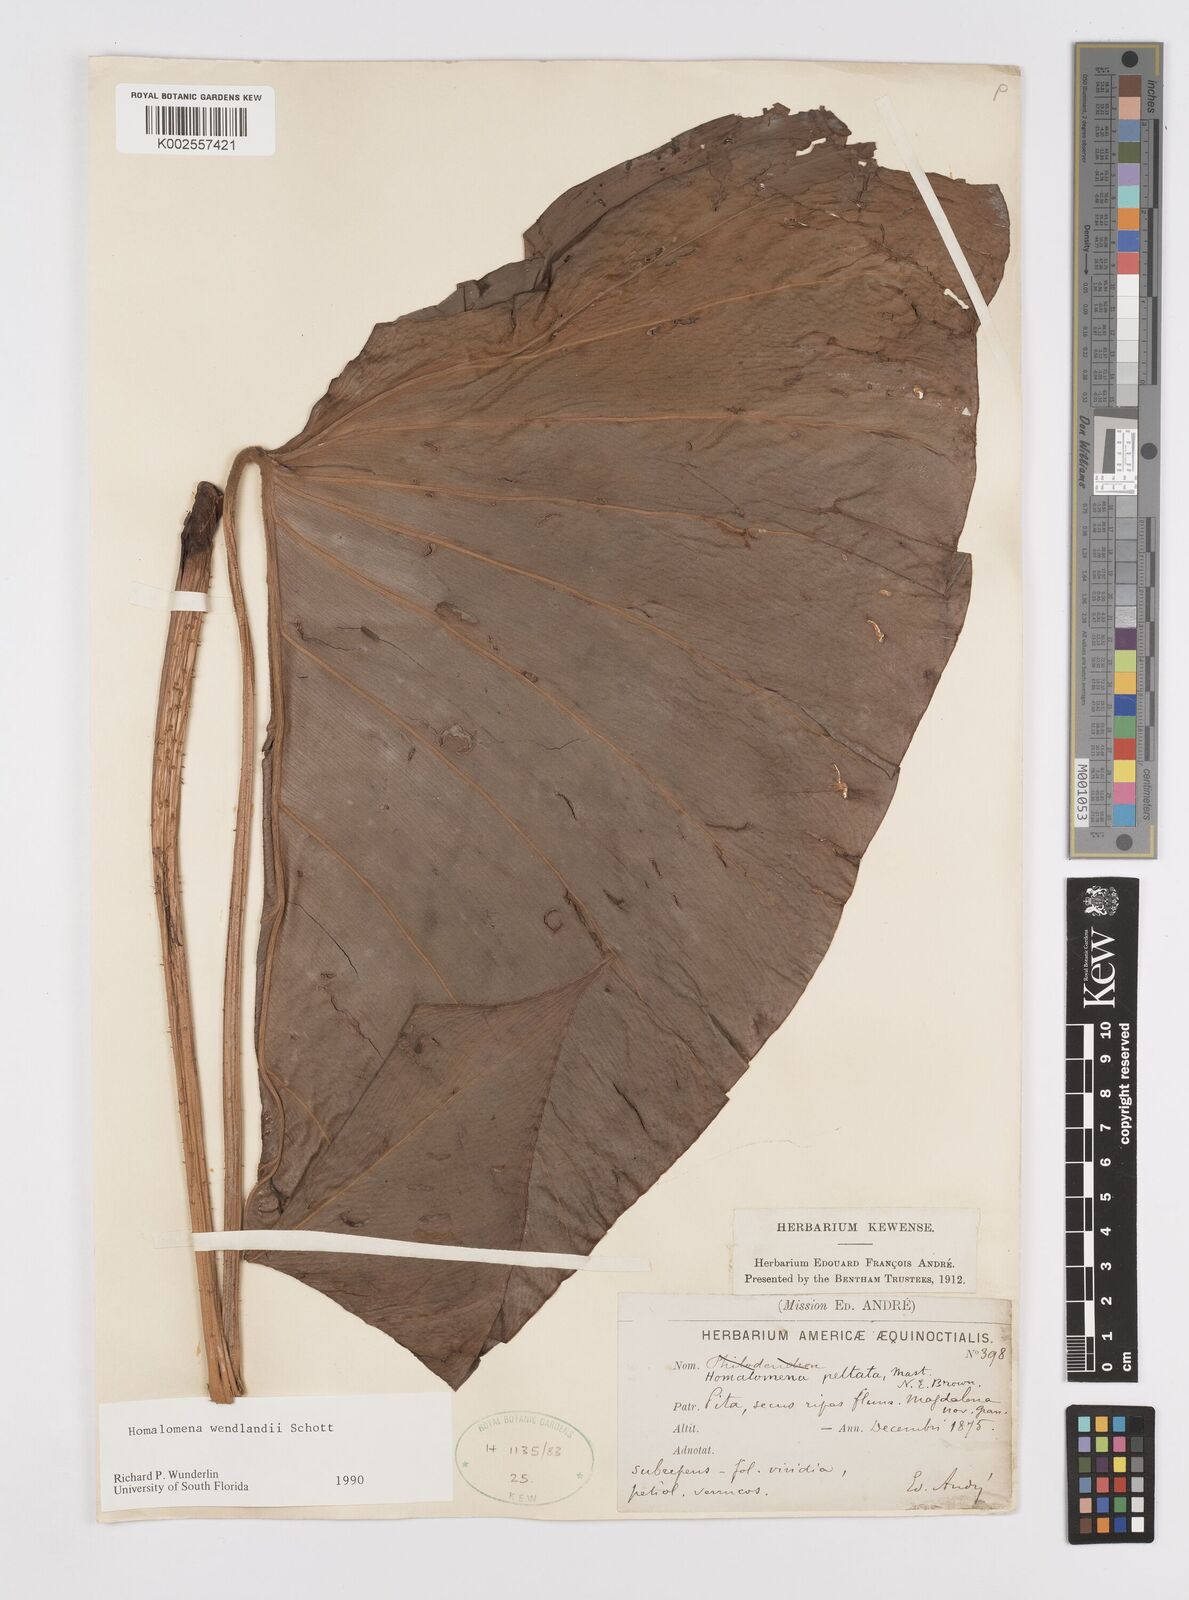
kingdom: Plantae
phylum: Tracheophyta
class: Liliopsida
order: Alismatales
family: Araceae
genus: Adelonema
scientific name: Adelonema wendlandii
